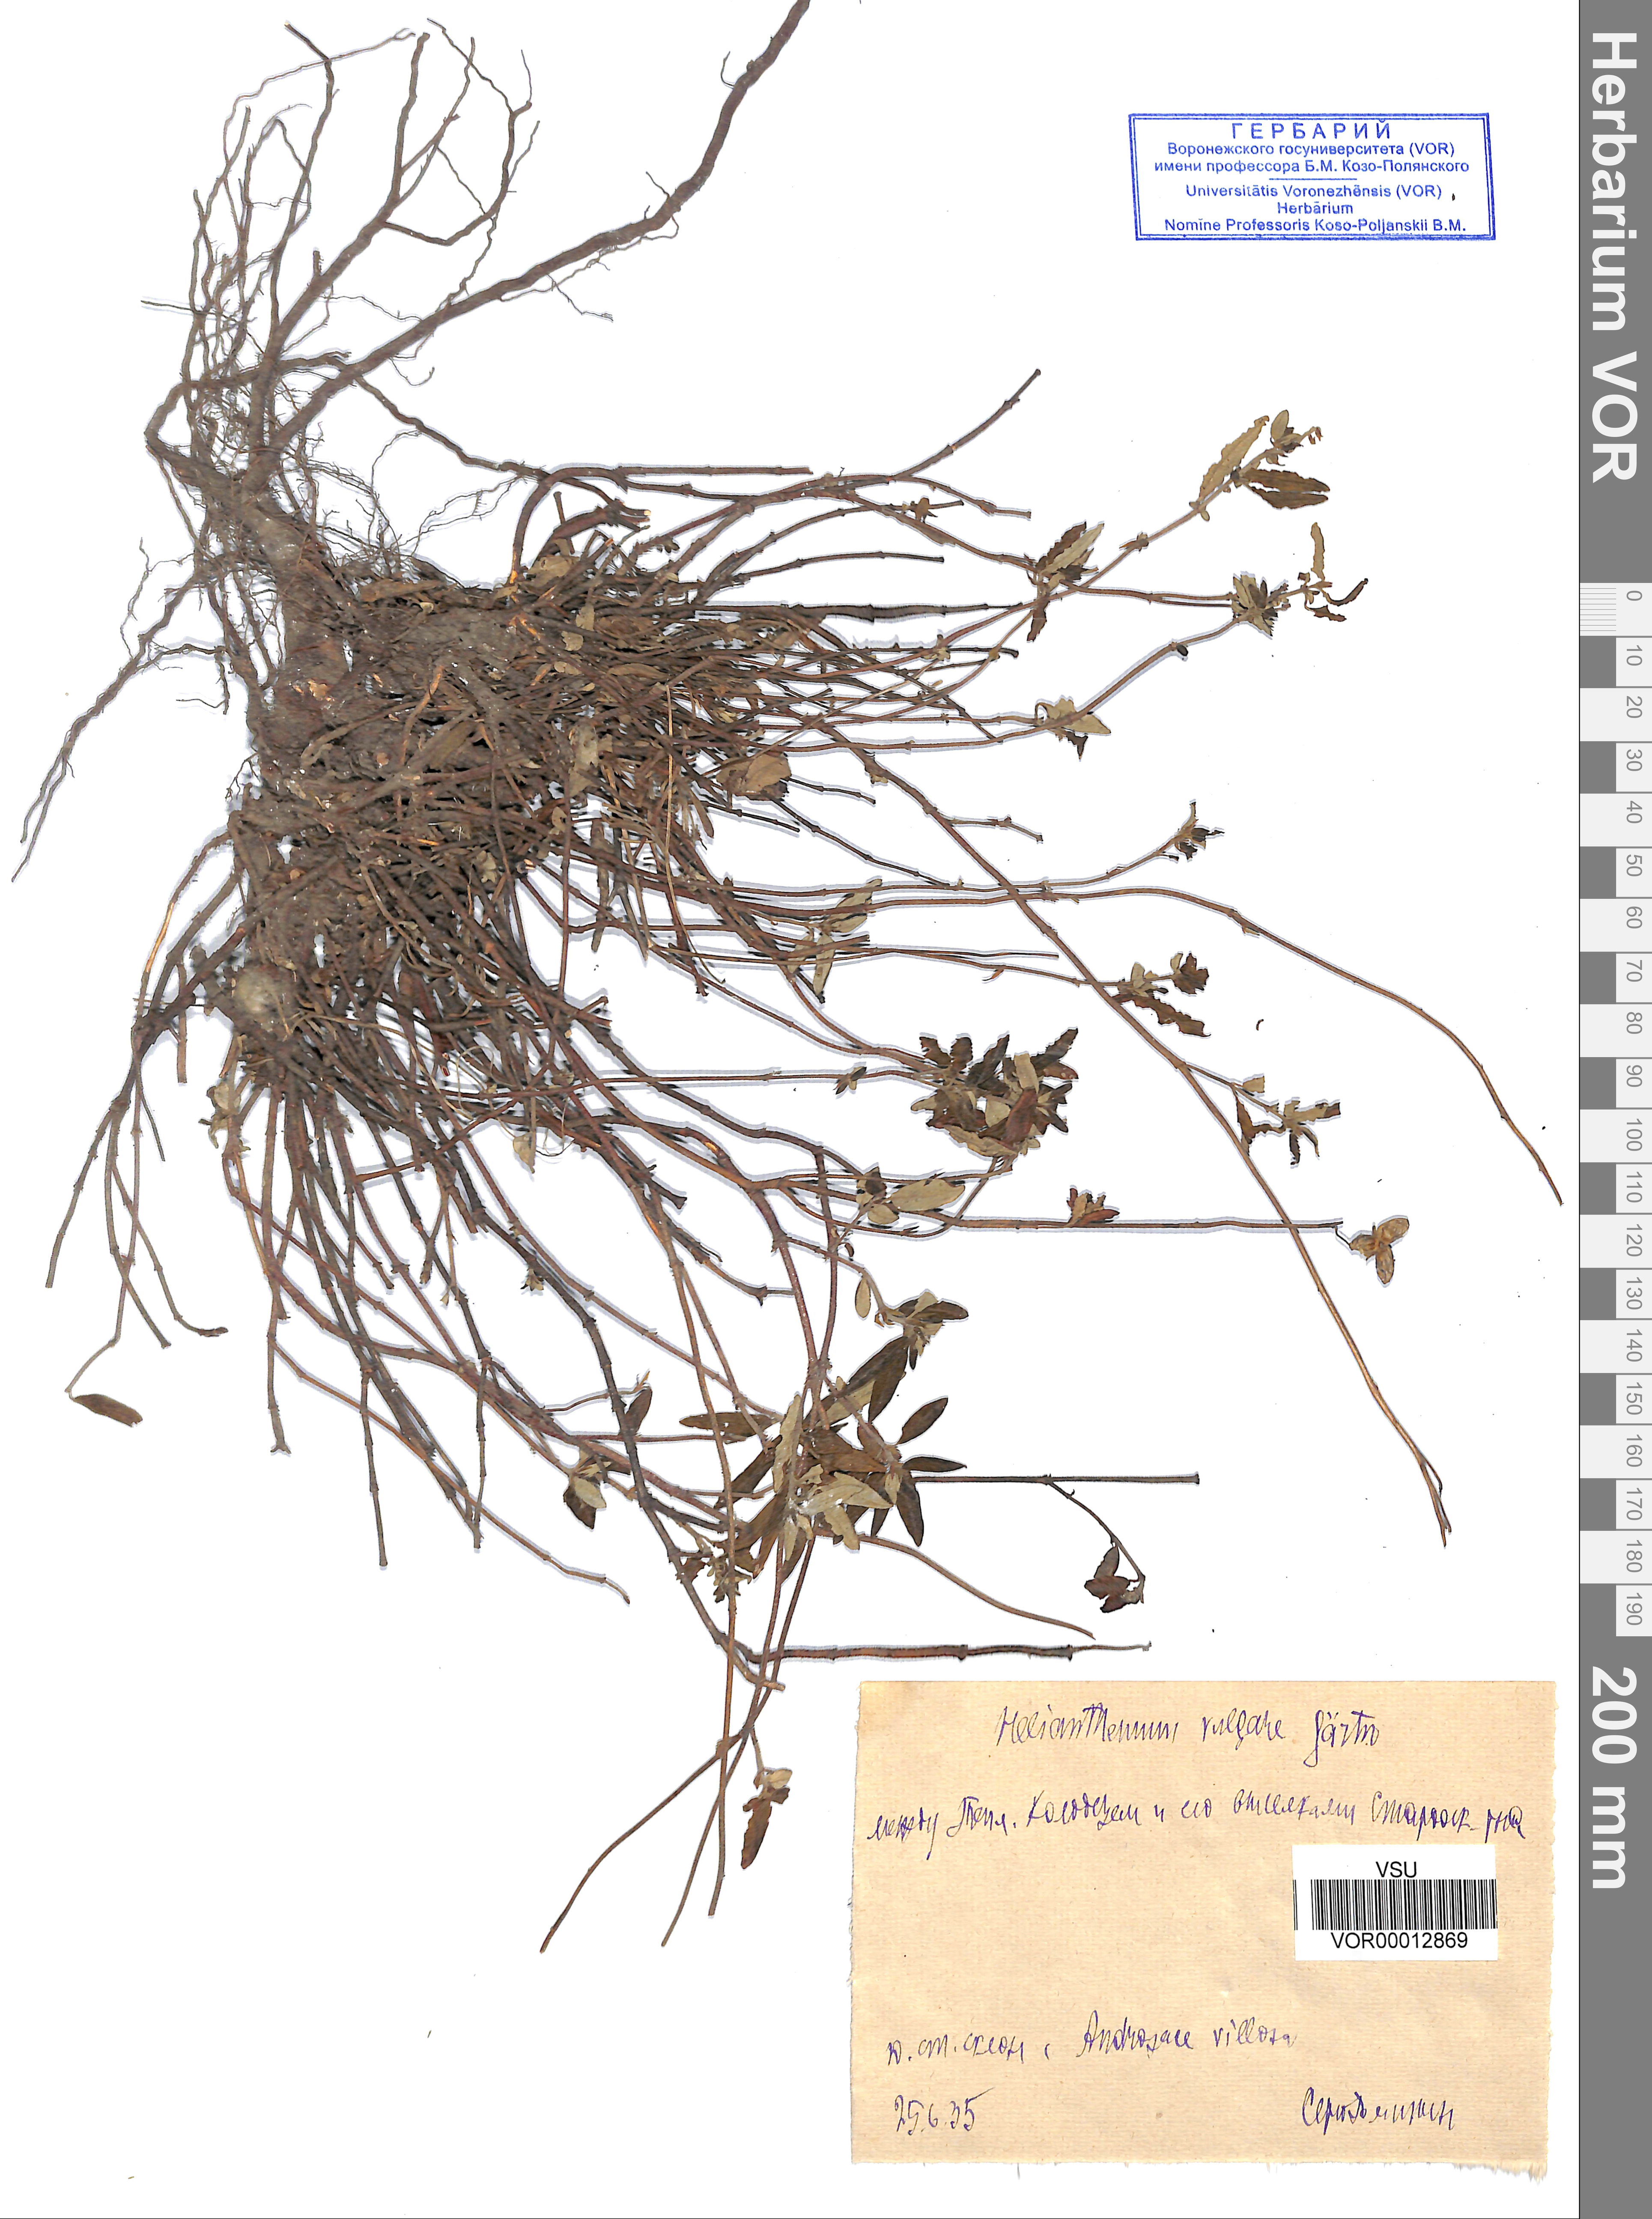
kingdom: Plantae
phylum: Tracheophyta
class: Magnoliopsida
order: Malvales
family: Cistaceae
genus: Helianthemum
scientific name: Helianthemum nummularium
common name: Common rock-rose
